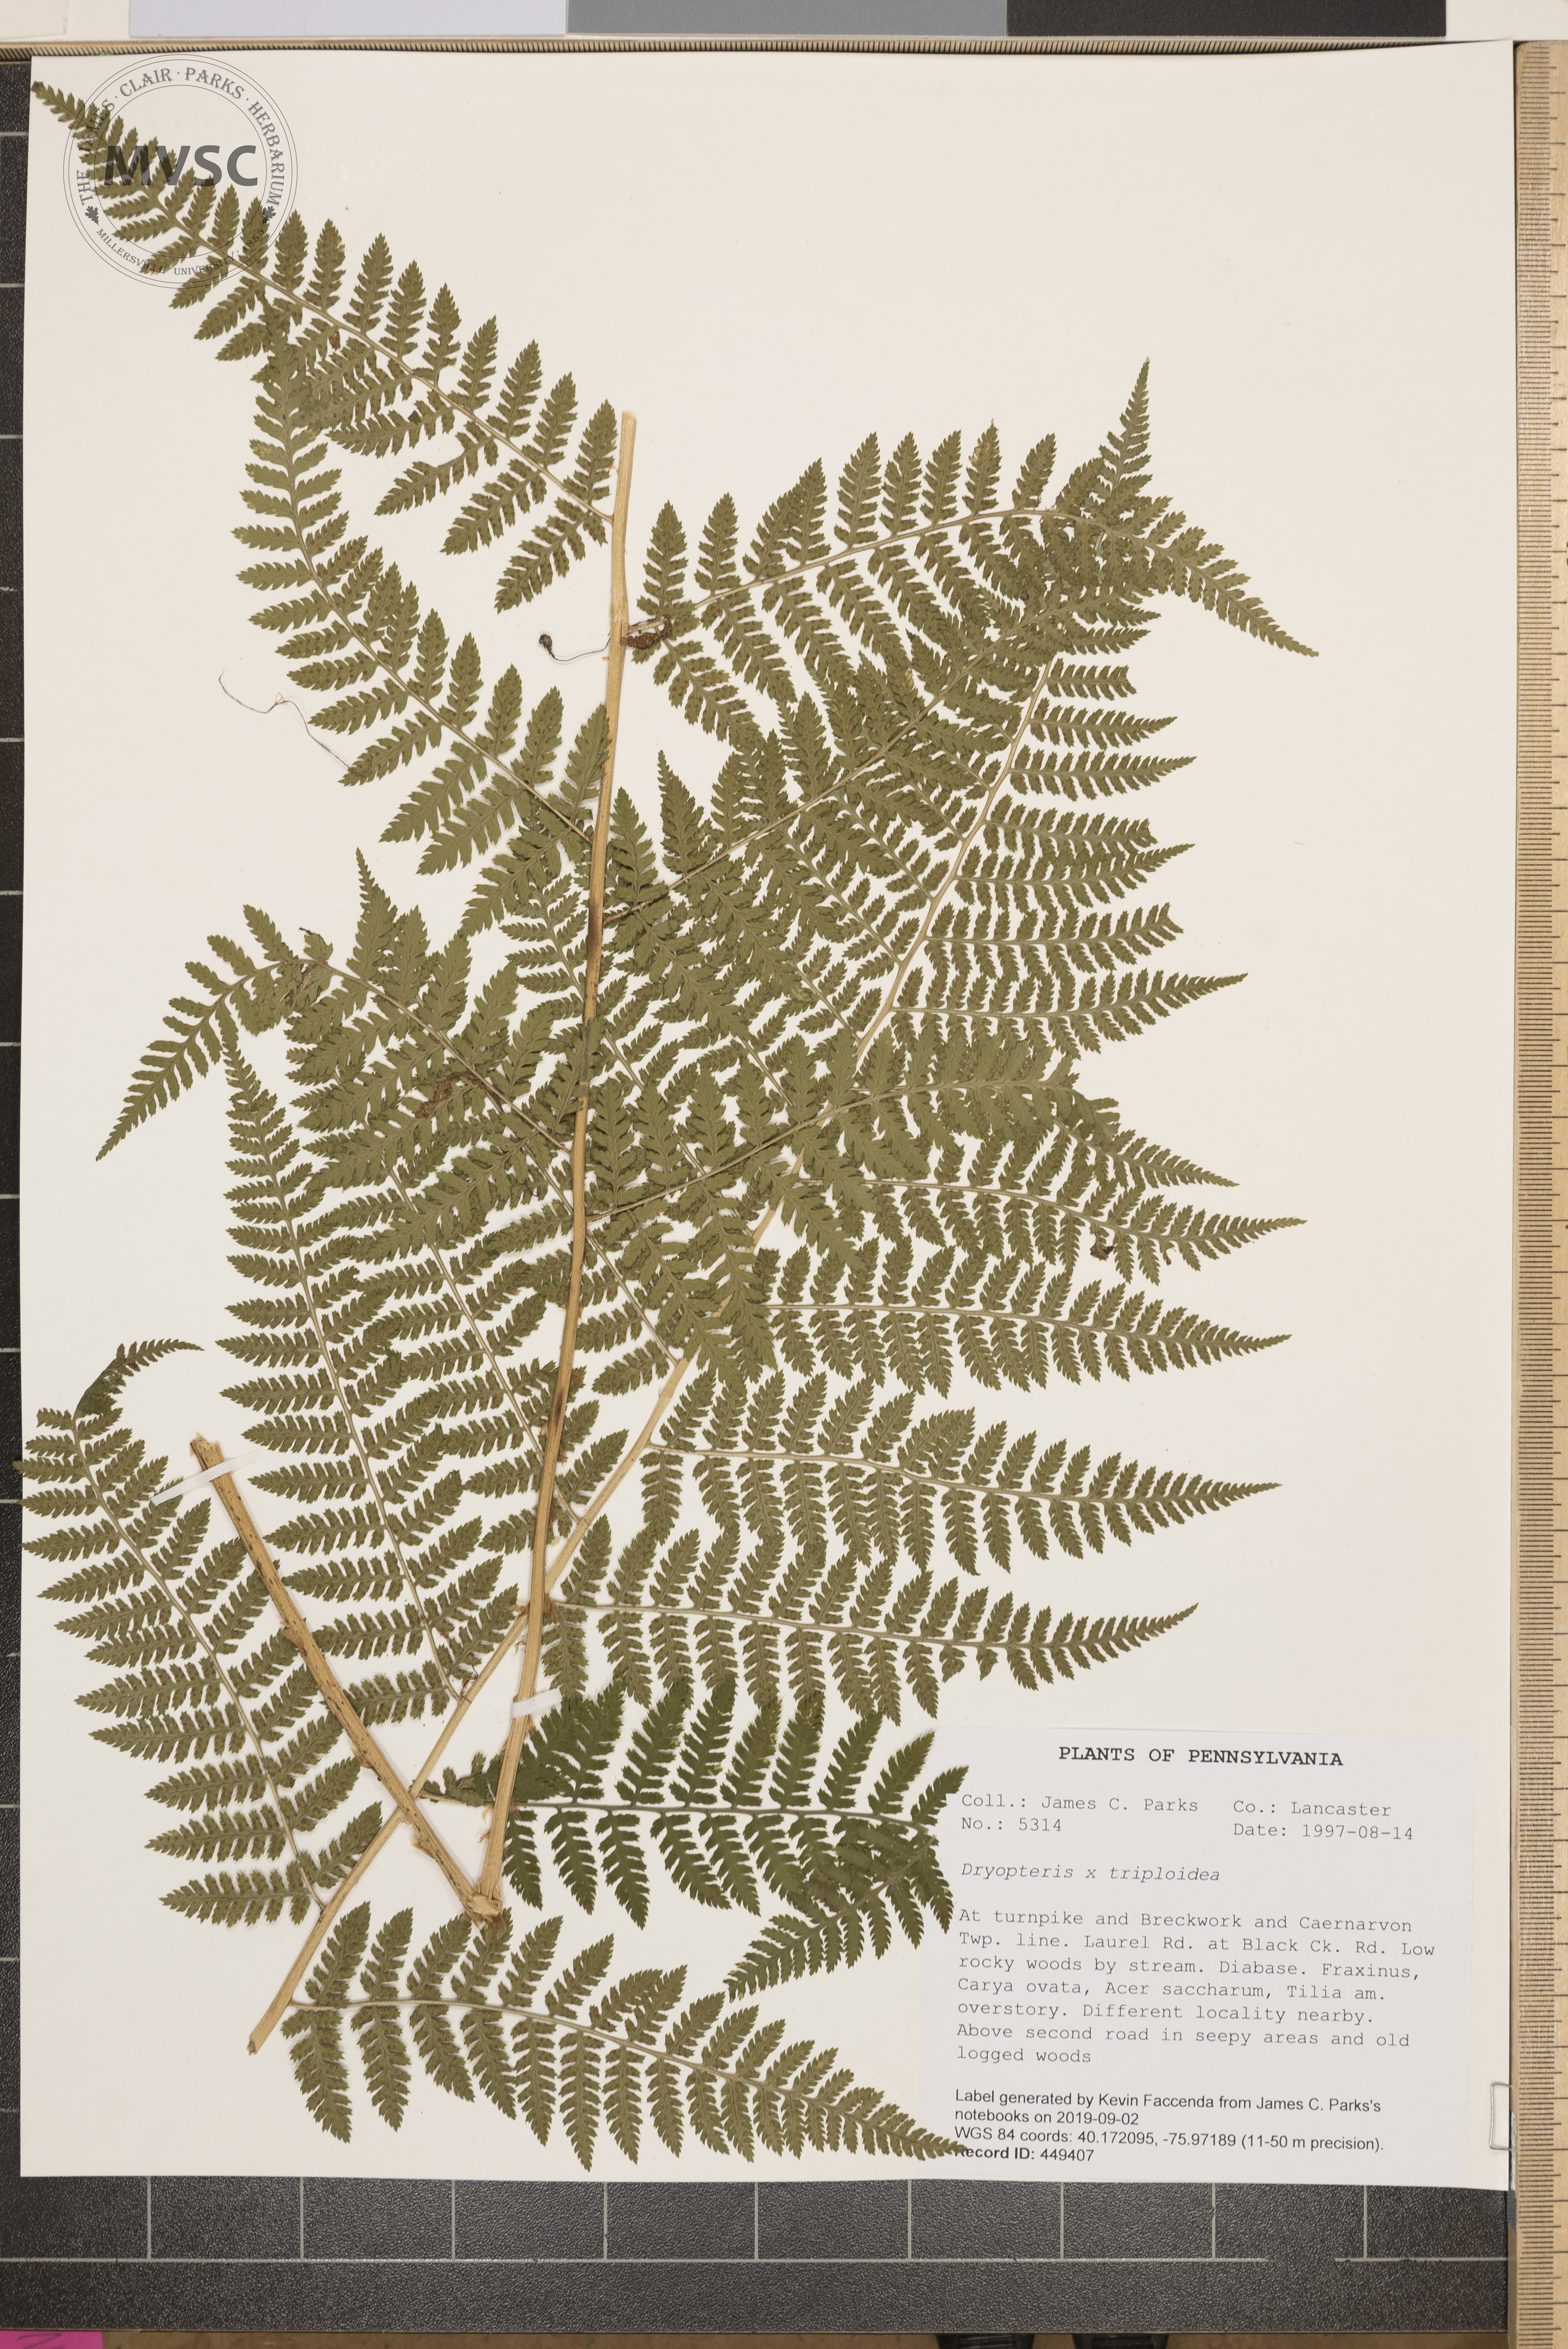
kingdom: Plantae
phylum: Tracheophyta
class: Polypodiopsida
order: Polypodiales
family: Dryopteridaceae
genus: Dryopteris
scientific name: Dryopteris triploidea
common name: Fruitful wood fern
